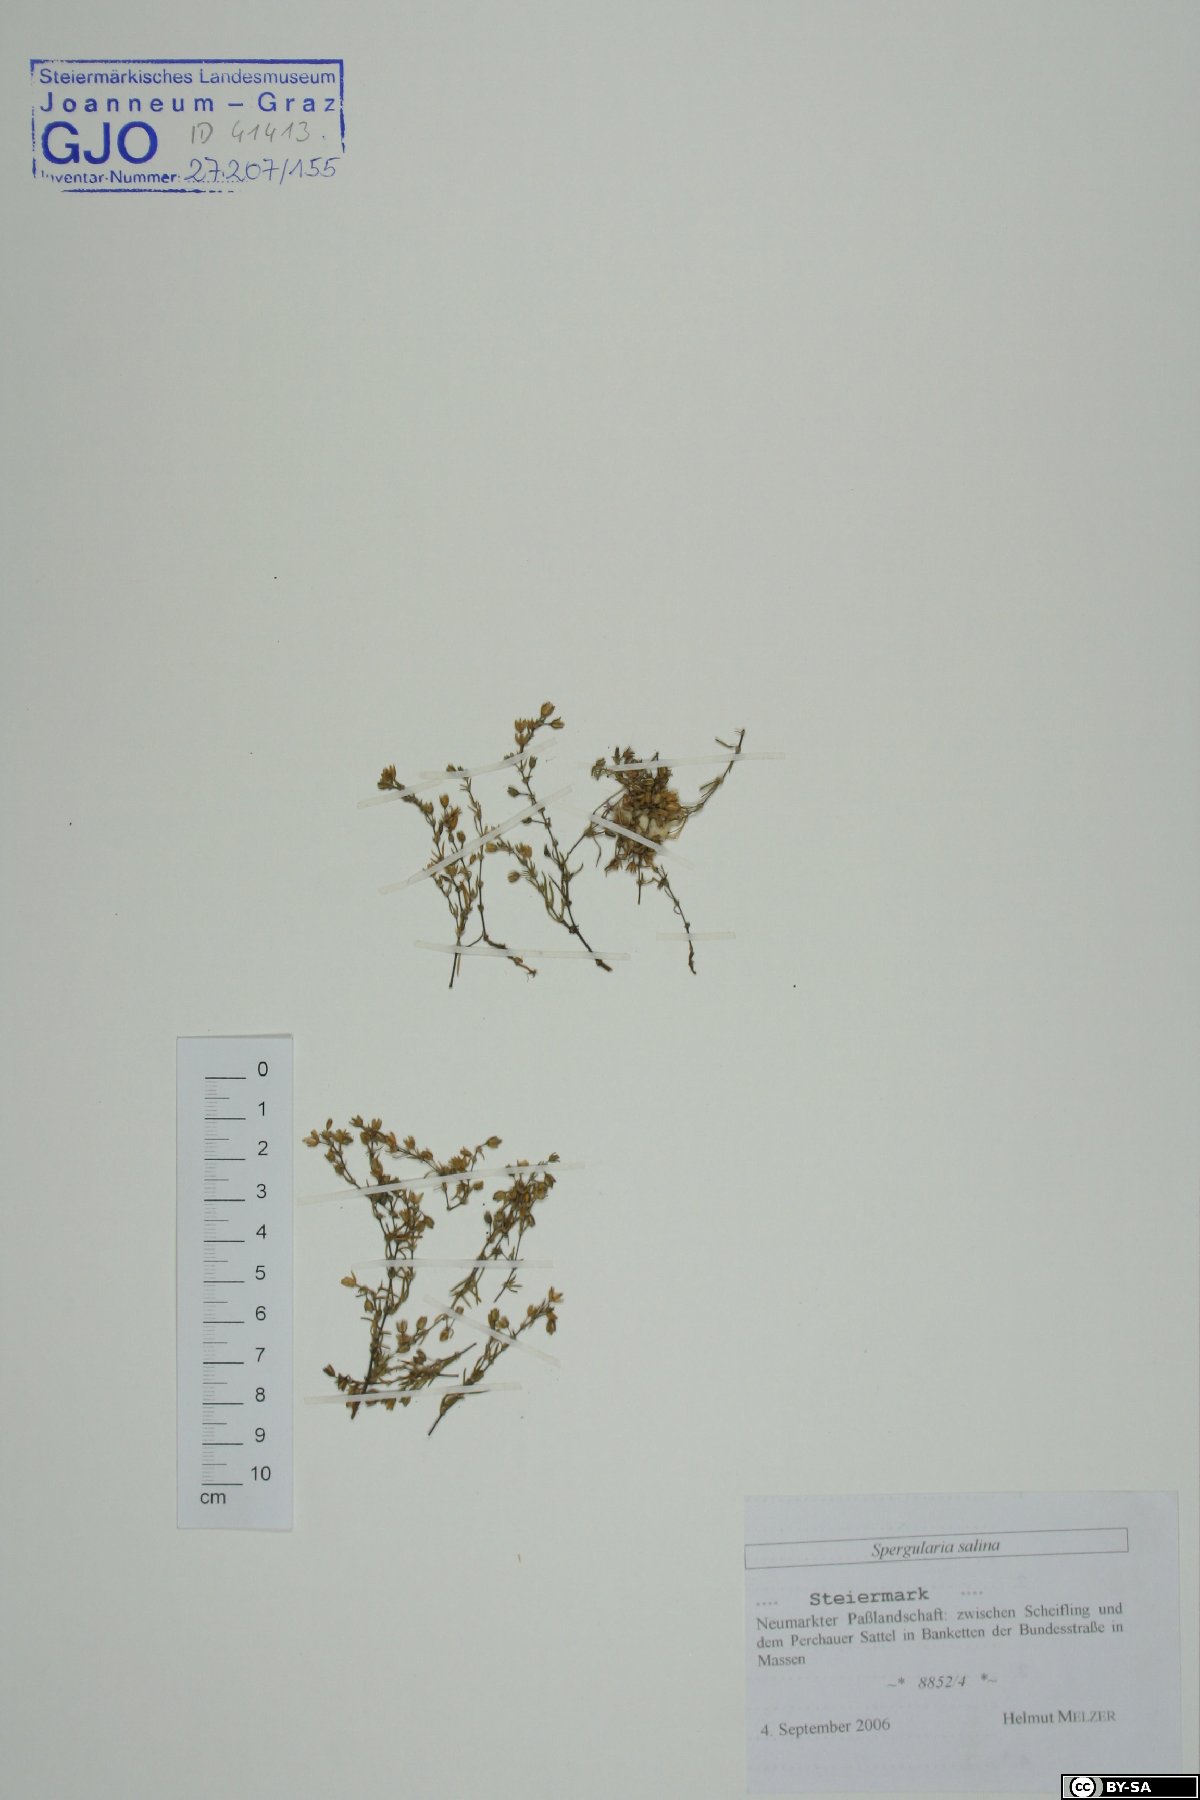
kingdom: Plantae
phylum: Tracheophyta
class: Magnoliopsida
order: Caryophyllales
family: Caryophyllaceae
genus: Spergularia
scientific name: Spergularia marina
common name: Lesser sea-spurrey
